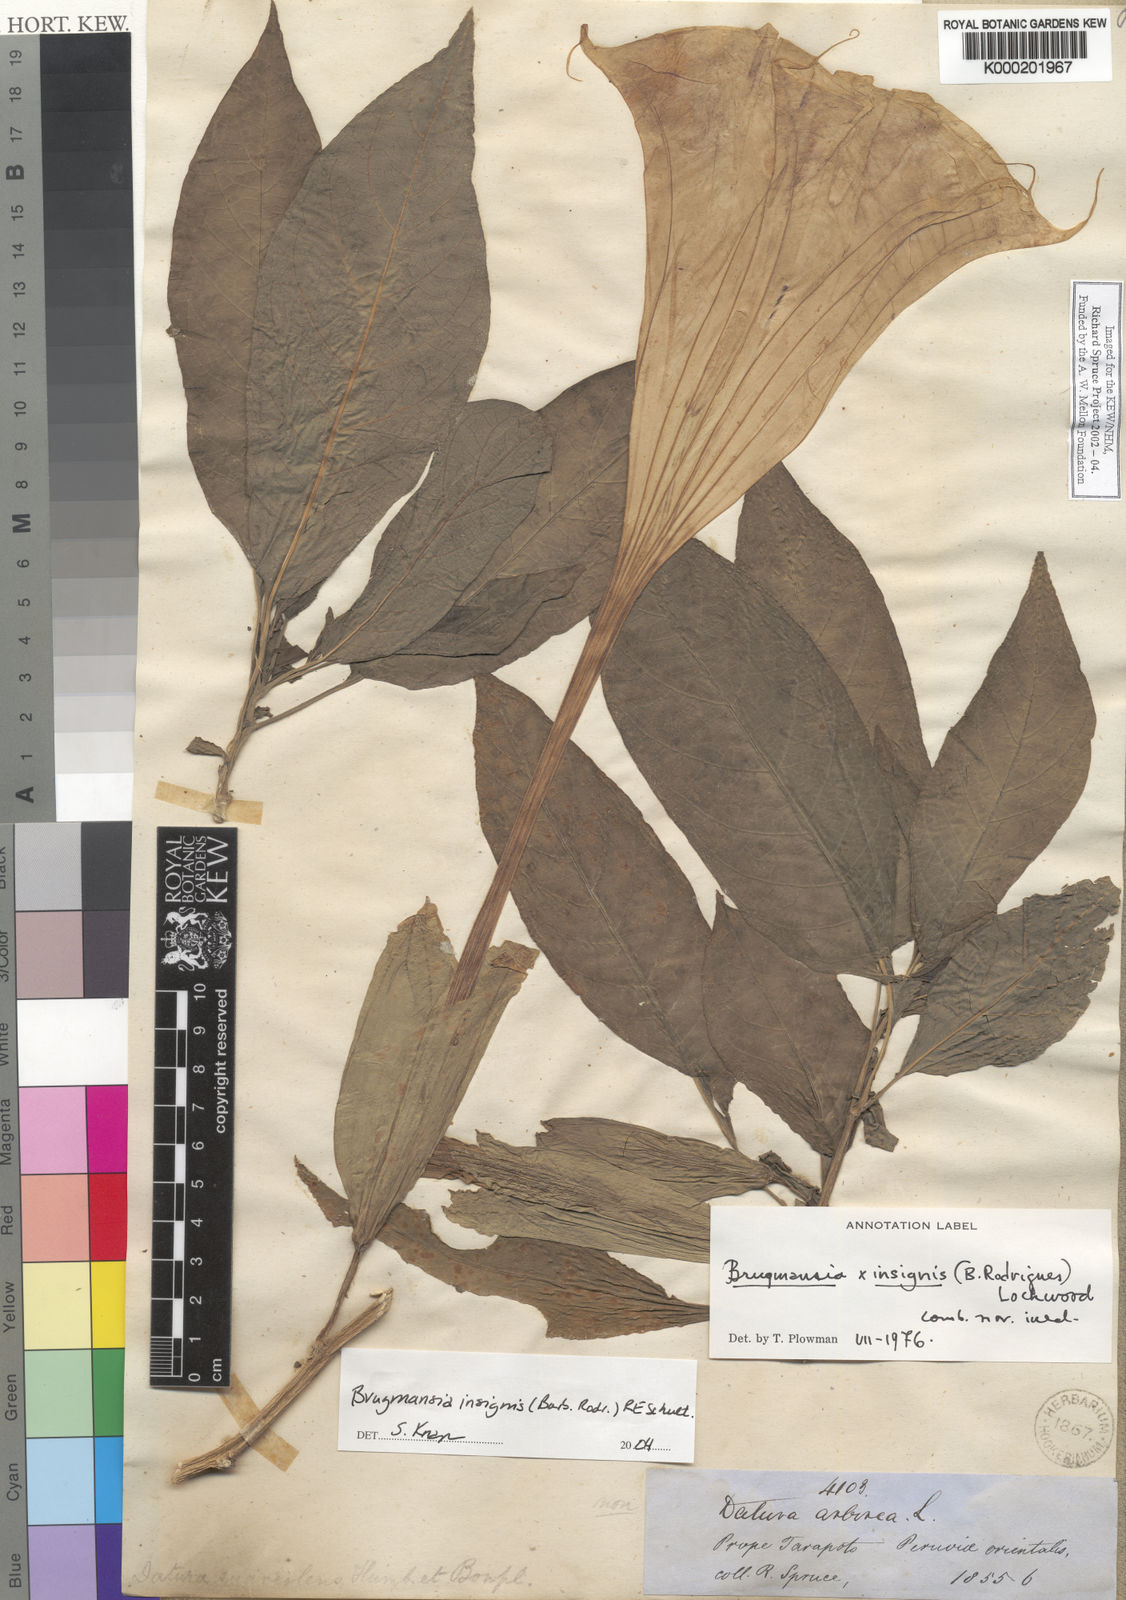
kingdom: Plantae
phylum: Tracheophyta
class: Magnoliopsida
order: Solanales
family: Solanaceae
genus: Brugmansia
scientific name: Brugmansia insignis
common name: Pink angel's-trumpet
